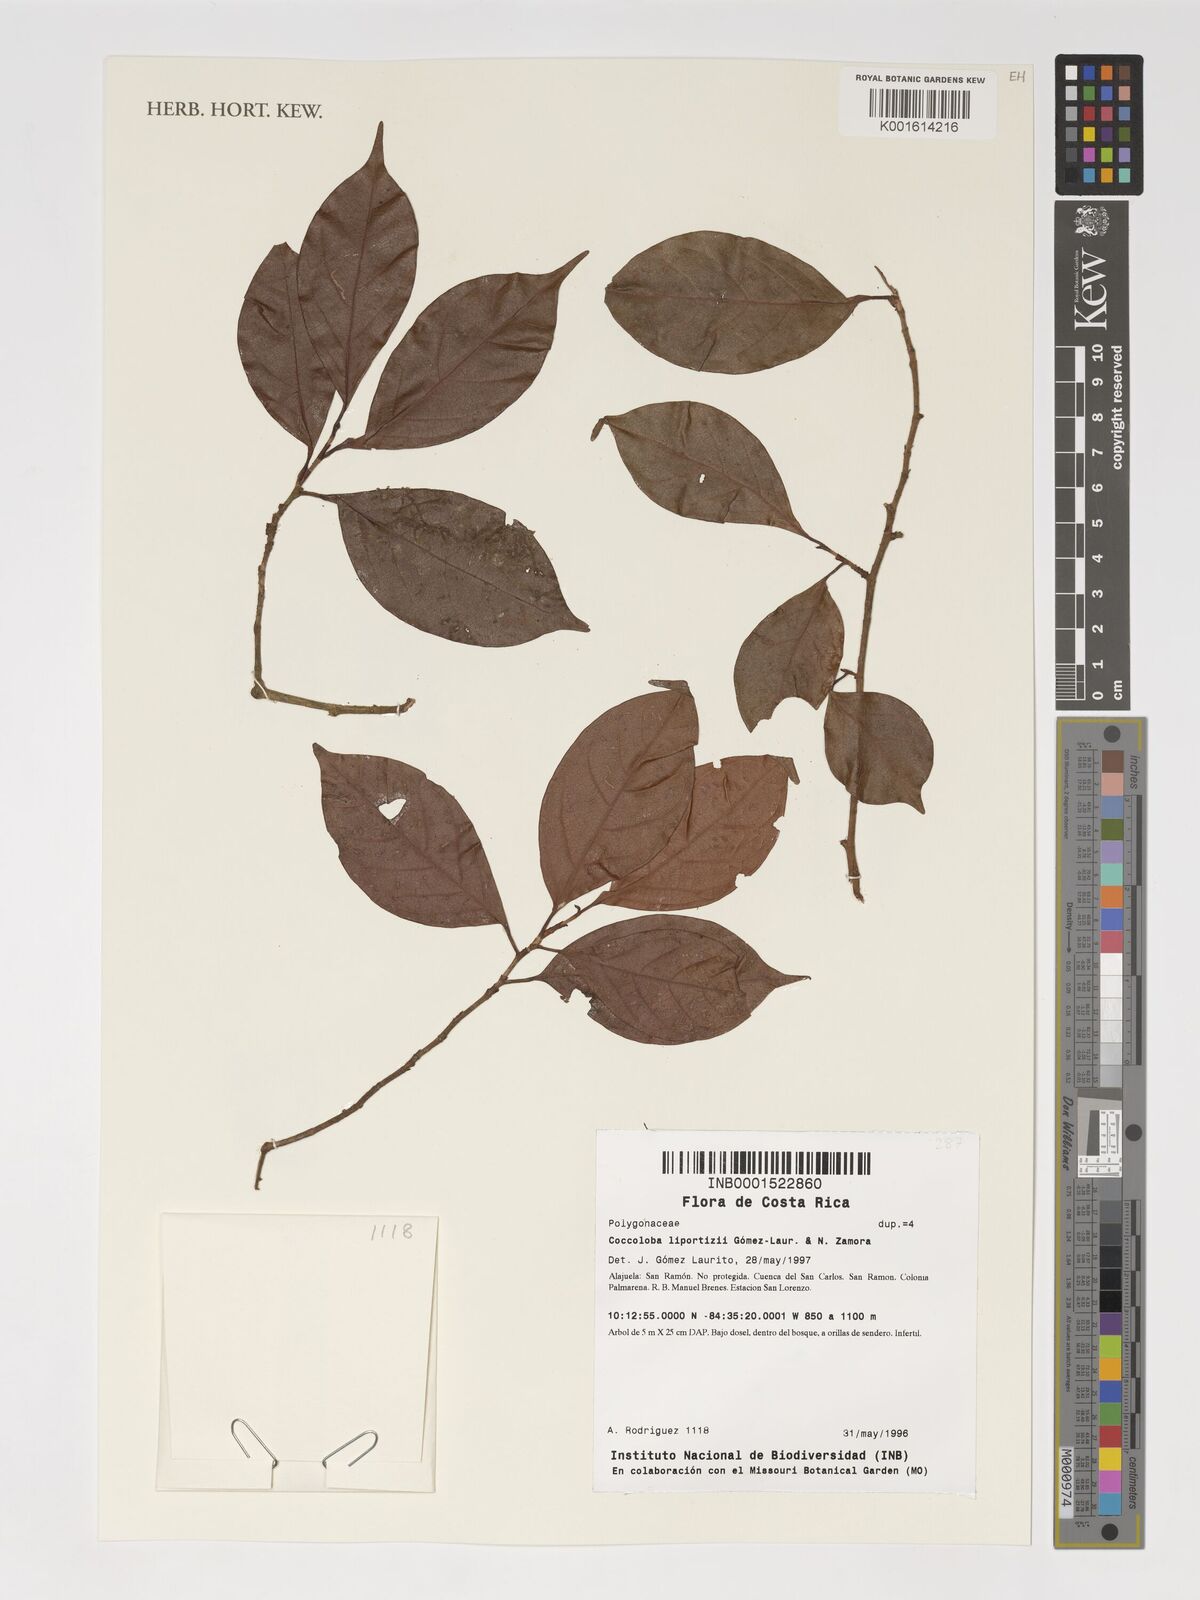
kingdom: Plantae
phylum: Tracheophyta
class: Magnoliopsida
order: Caryophyllales
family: Polygonaceae
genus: Coccoloba
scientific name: Coccoloba liportizii
